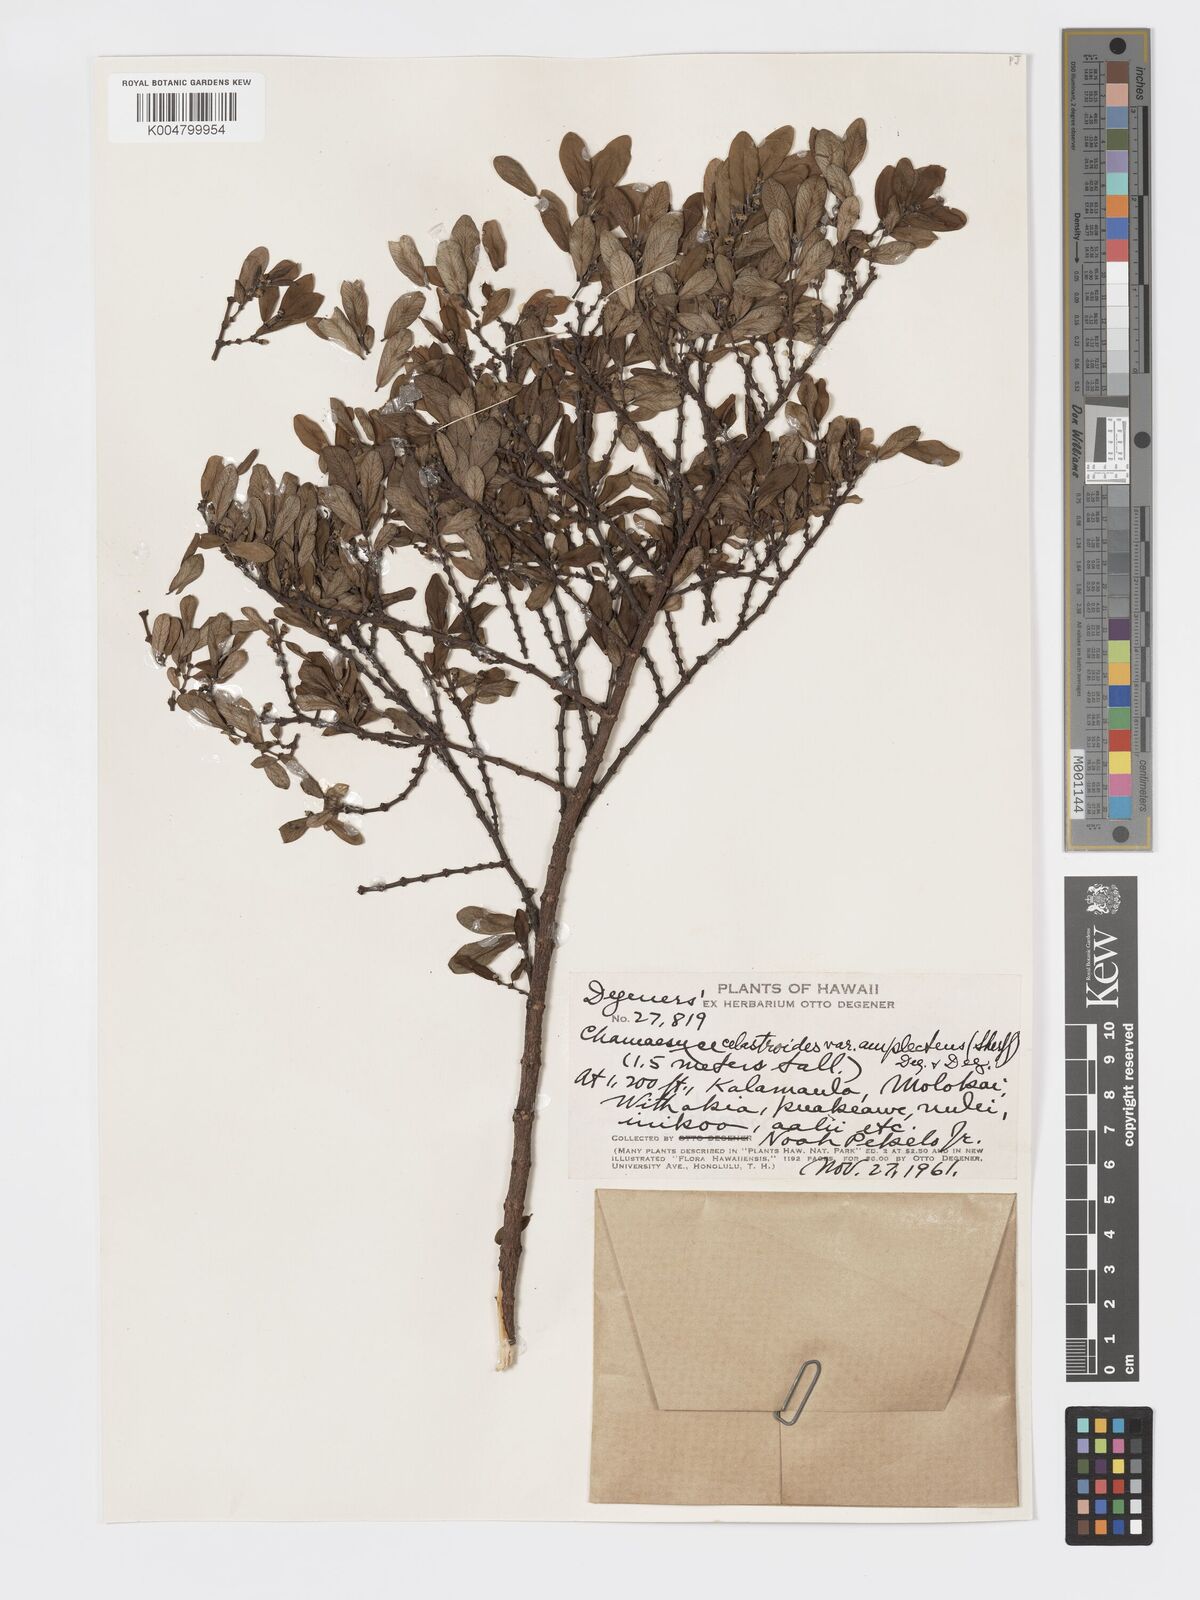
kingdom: Plantae
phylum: Tracheophyta
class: Magnoliopsida
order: Malpighiales
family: Euphorbiaceae
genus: Euphorbia
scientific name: Euphorbia celastroides
